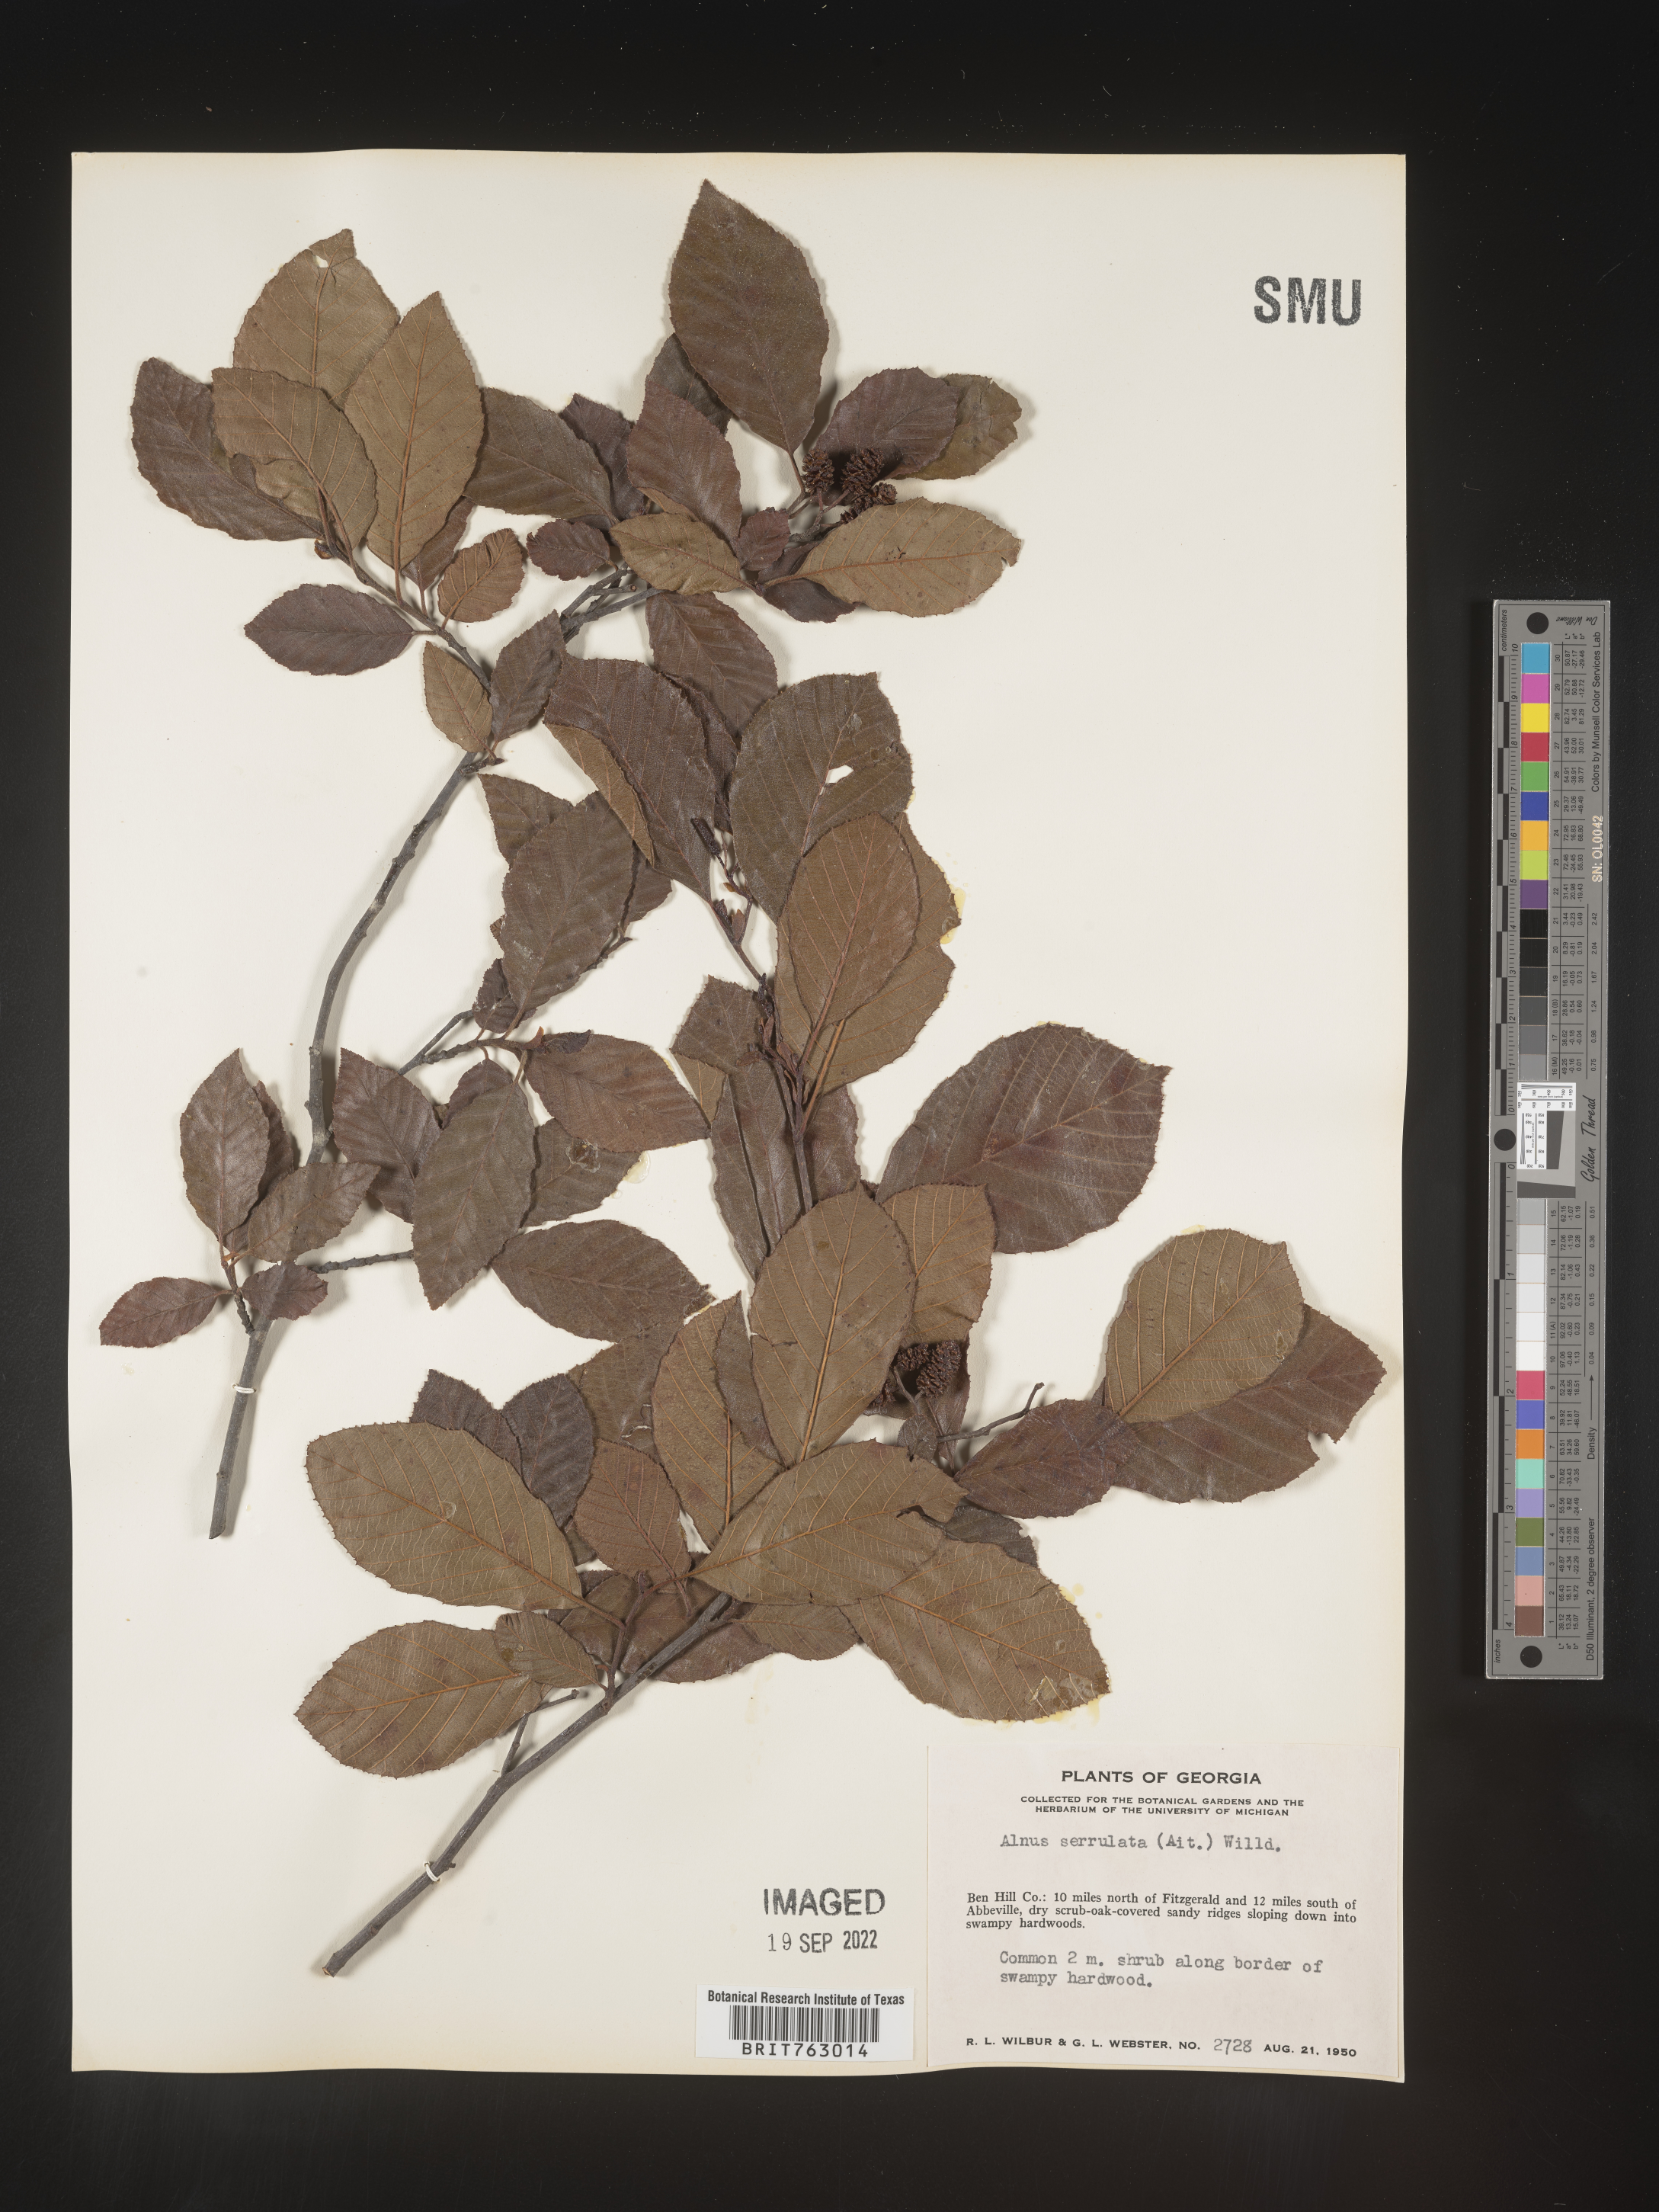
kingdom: Plantae
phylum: Tracheophyta
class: Magnoliopsida
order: Fagales
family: Betulaceae
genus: Alnus
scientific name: Alnus serrulata
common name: Hazel alder
